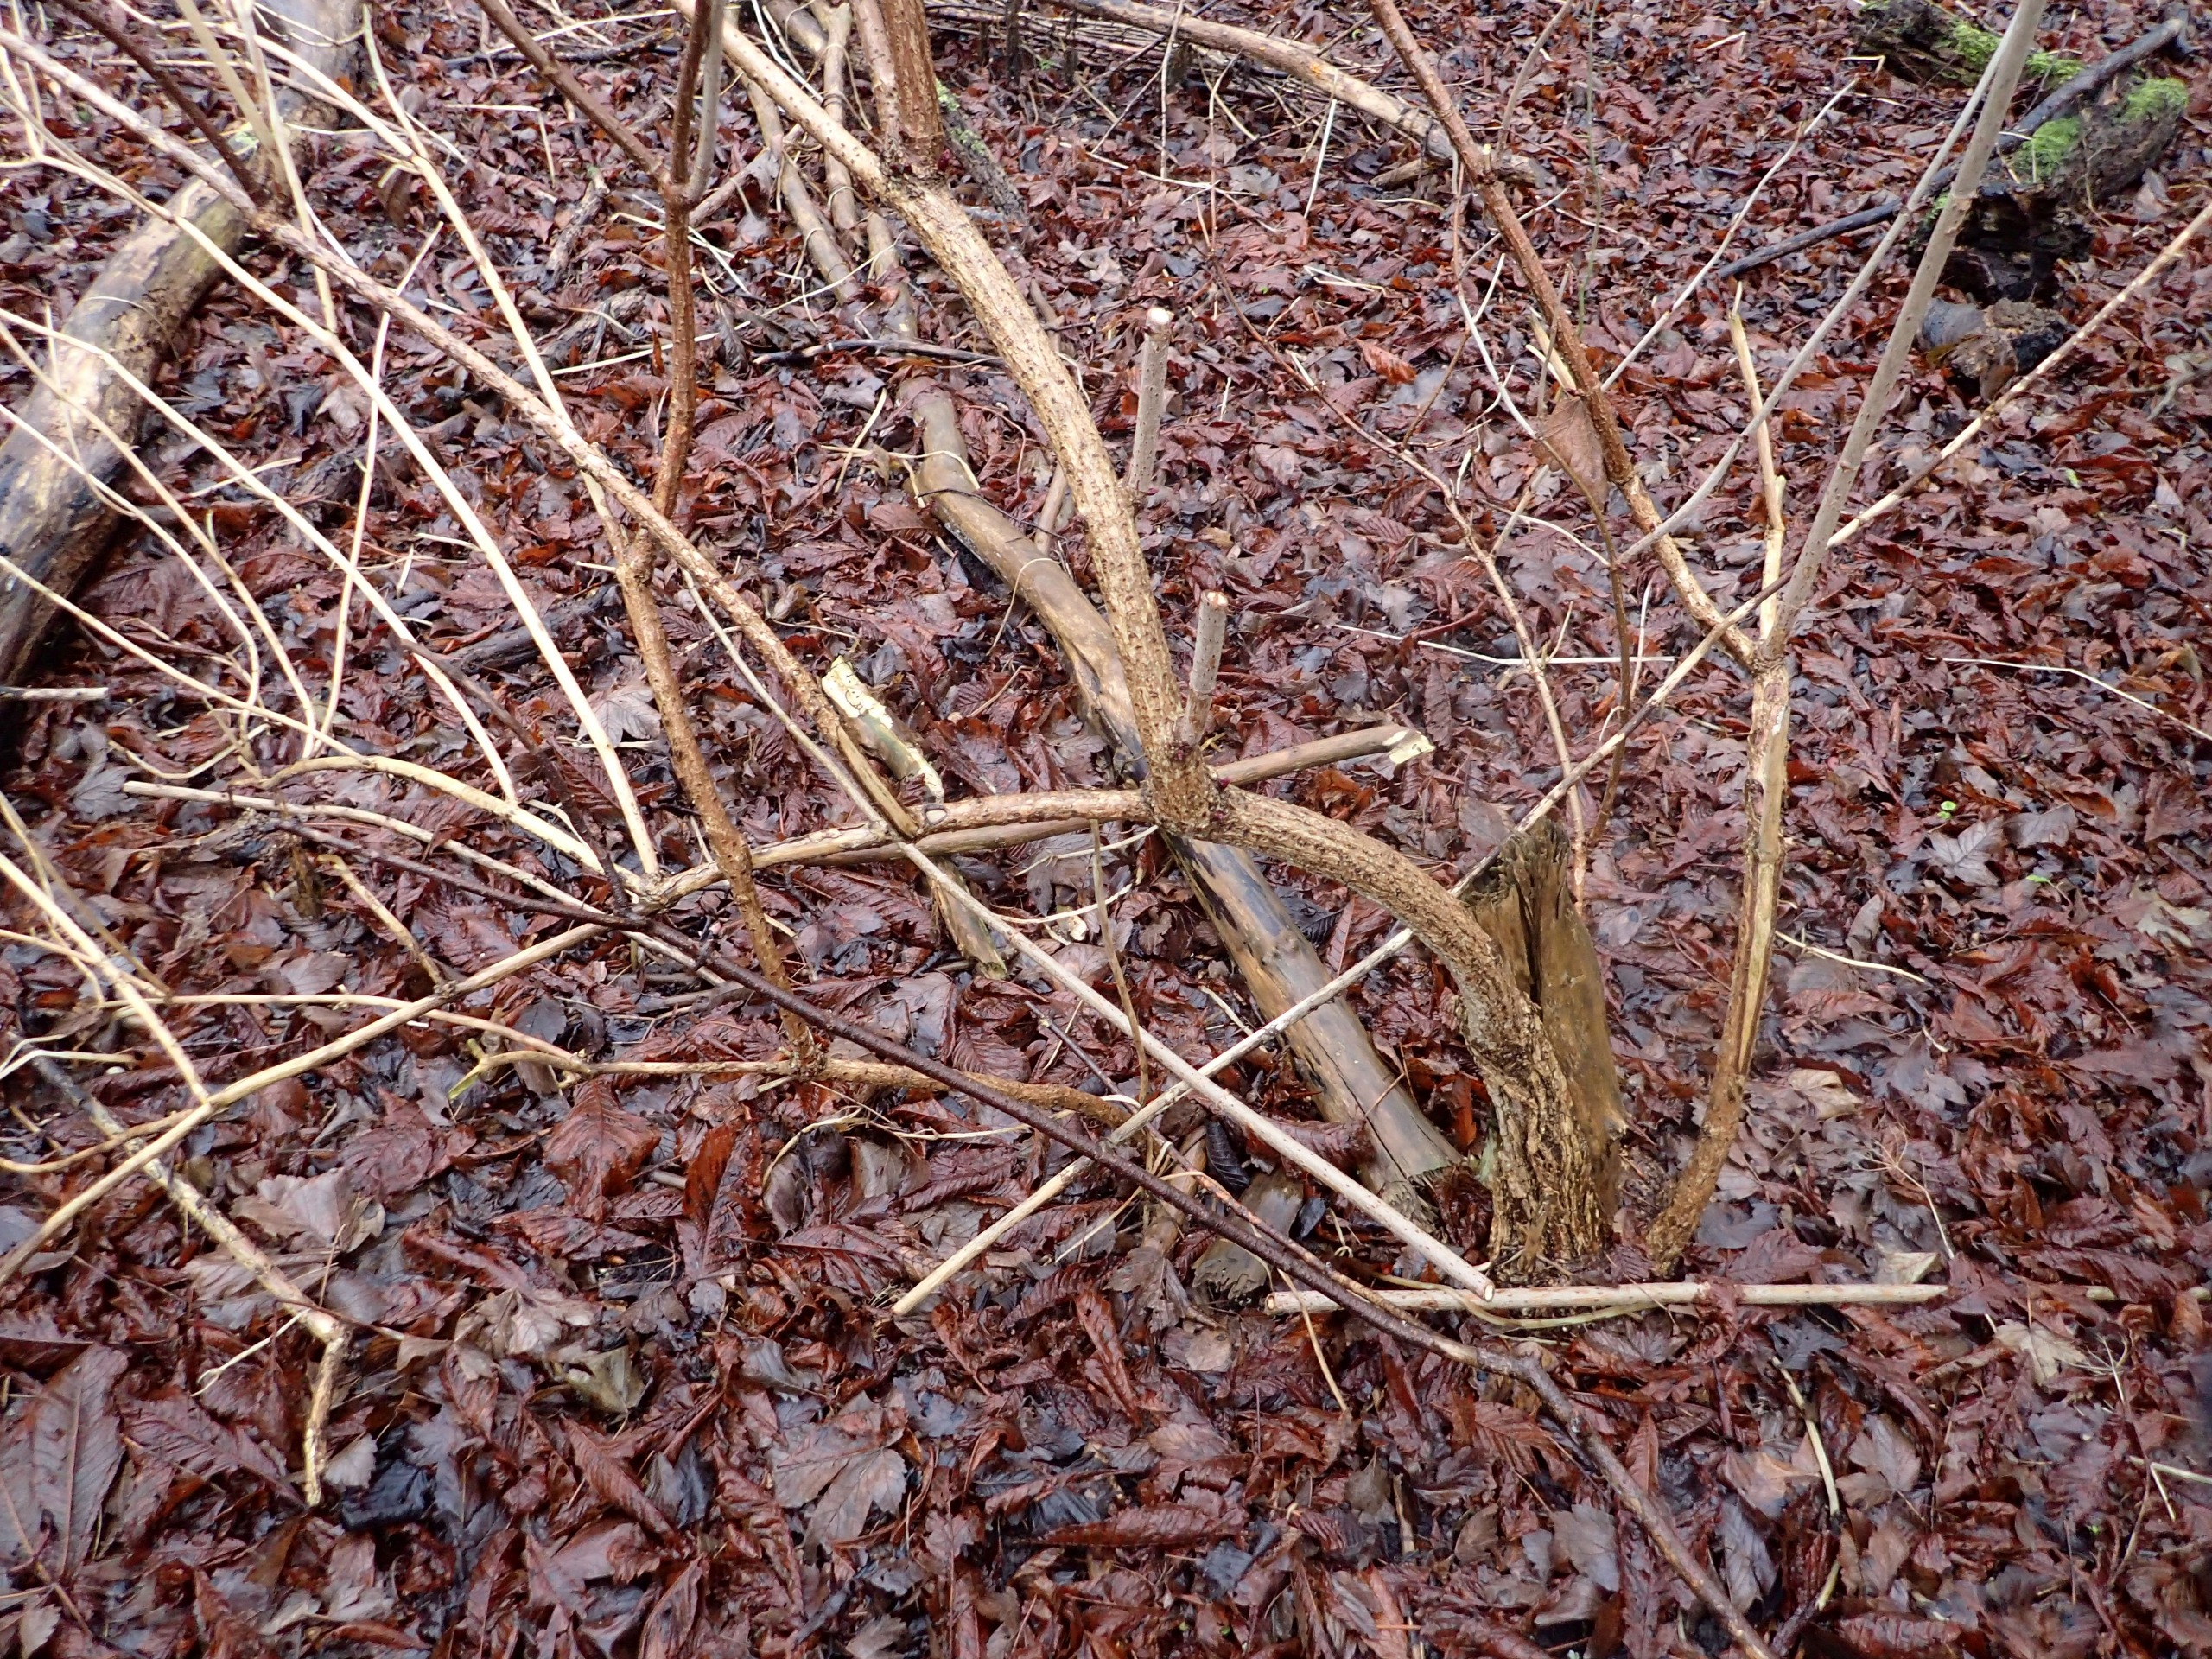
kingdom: Plantae
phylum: Tracheophyta
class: Magnoliopsida
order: Dipsacales
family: Viburnaceae
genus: Sambucus
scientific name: Sambucus nigra
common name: Almindelig hyld
